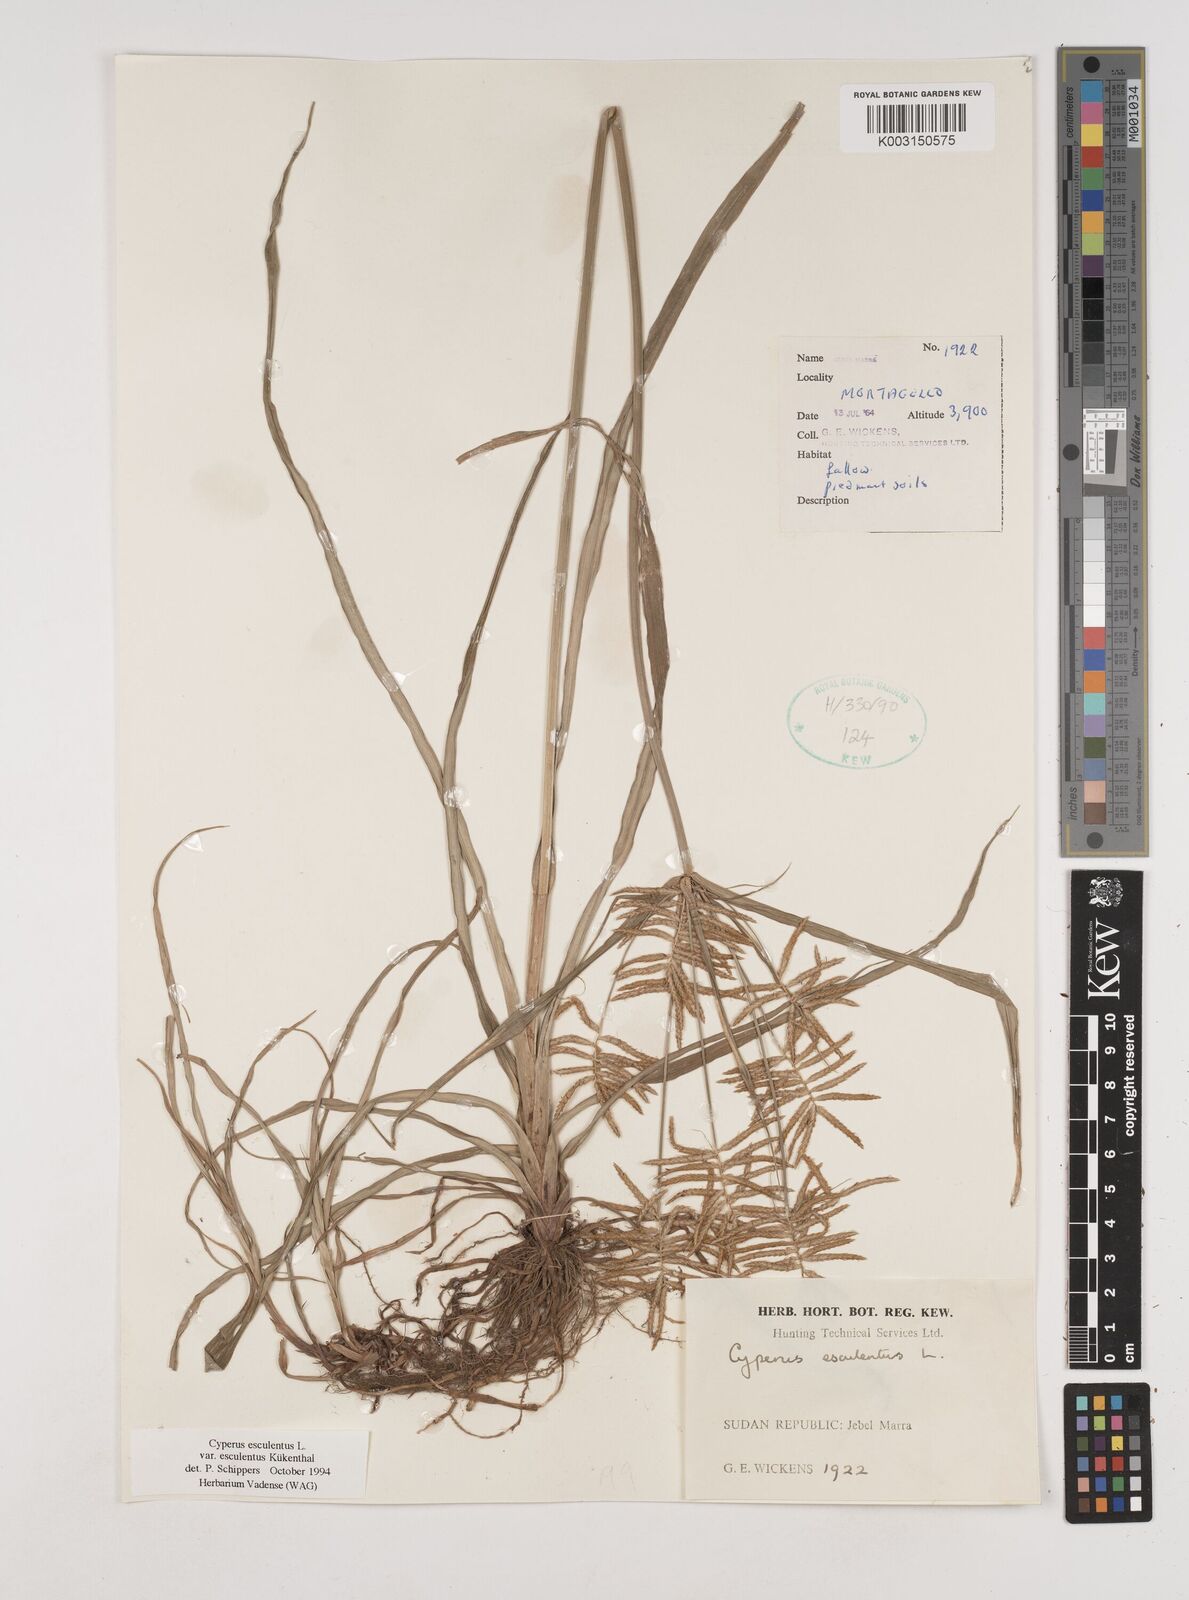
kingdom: Plantae
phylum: Tracheophyta
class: Liliopsida
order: Poales
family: Cyperaceae
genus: Cyperus
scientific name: Cyperus esculentus
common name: Yellow nutsedge
